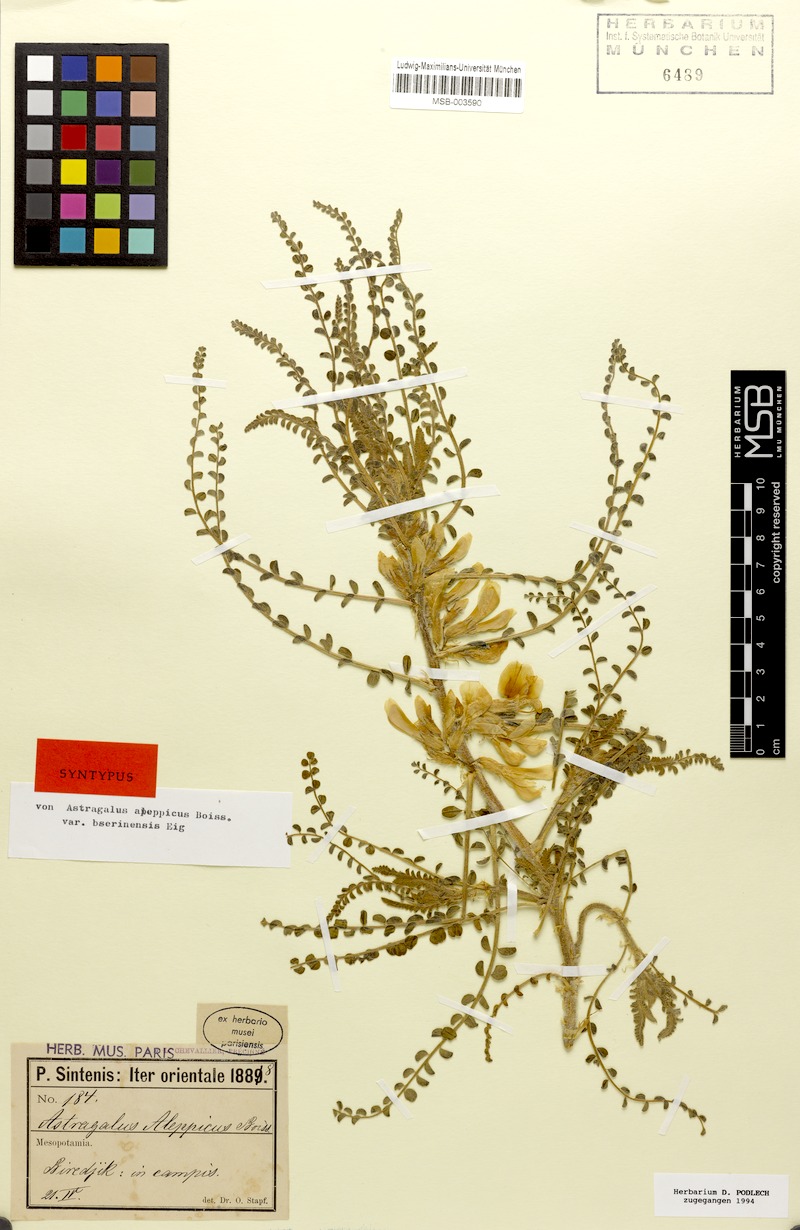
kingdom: Plantae
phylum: Tracheophyta
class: Magnoliopsida
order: Fabales
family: Fabaceae
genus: Astragalus
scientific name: Astragalus aleppicus
